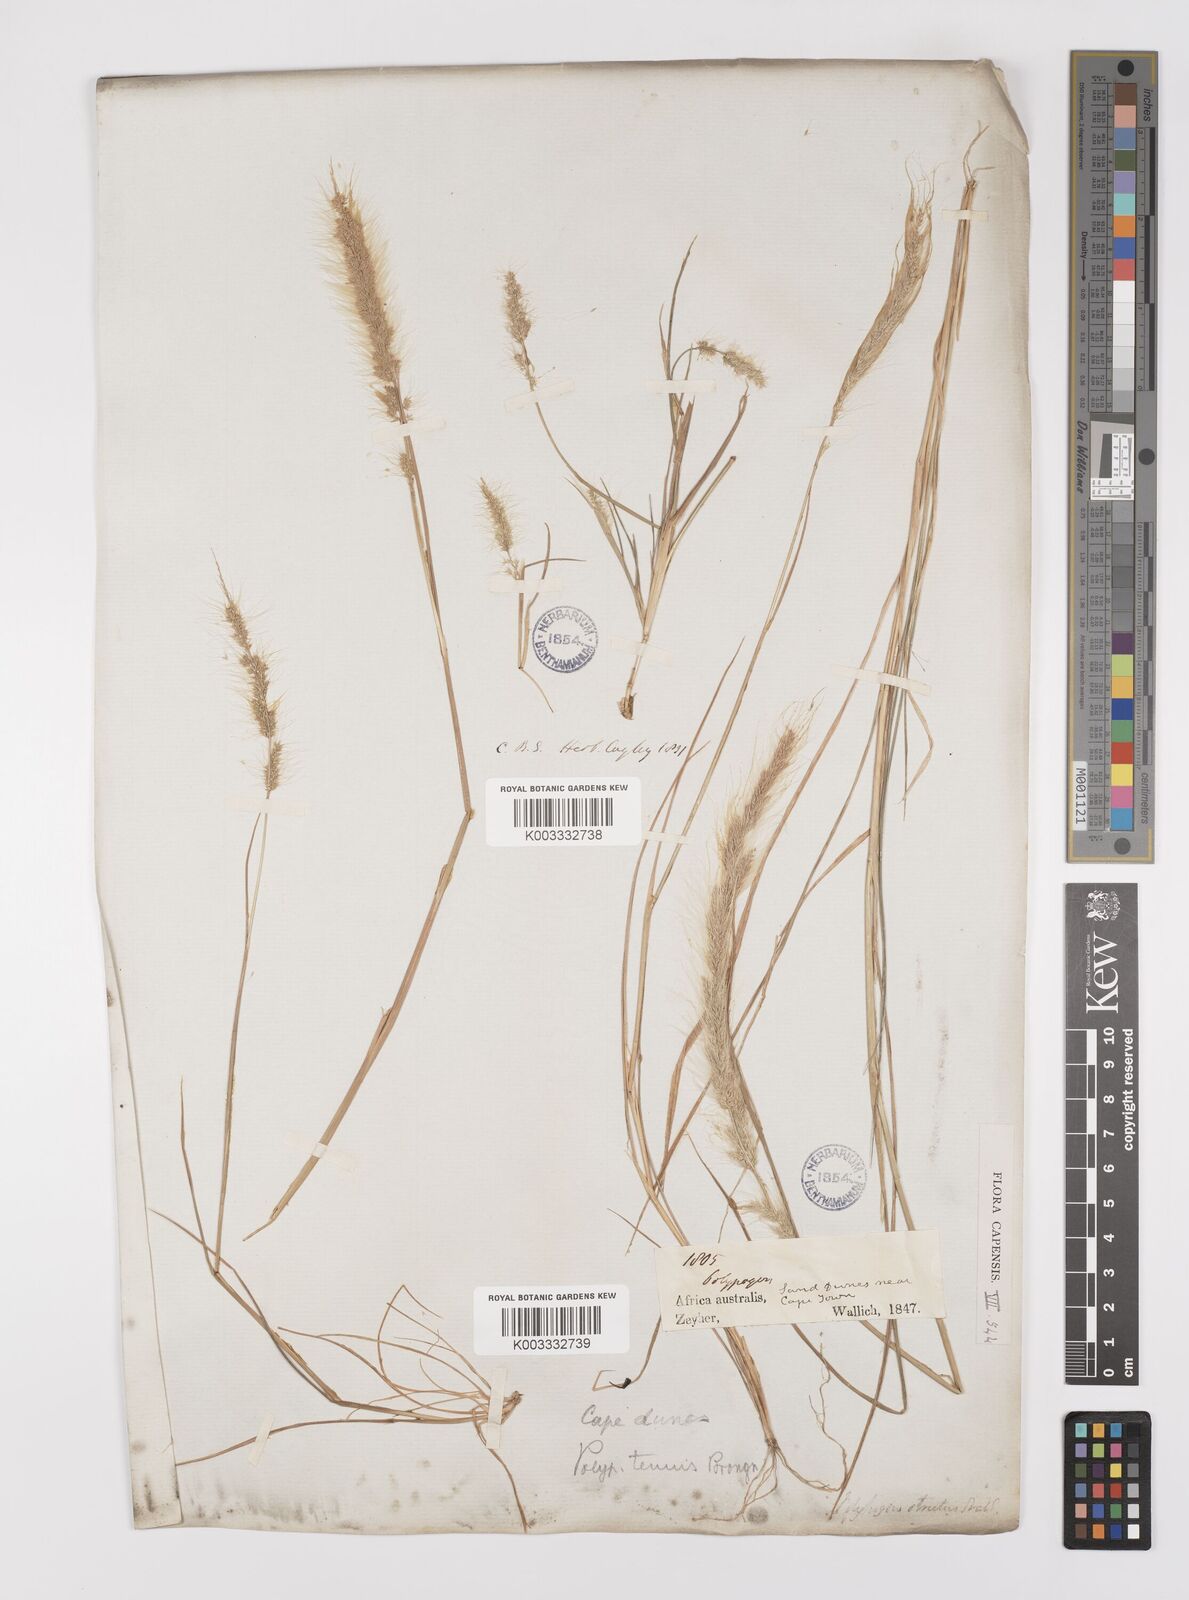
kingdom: Plantae
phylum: Tracheophyta
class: Liliopsida
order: Poales
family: Poaceae
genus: Polypogon
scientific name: Polypogon tenuis
